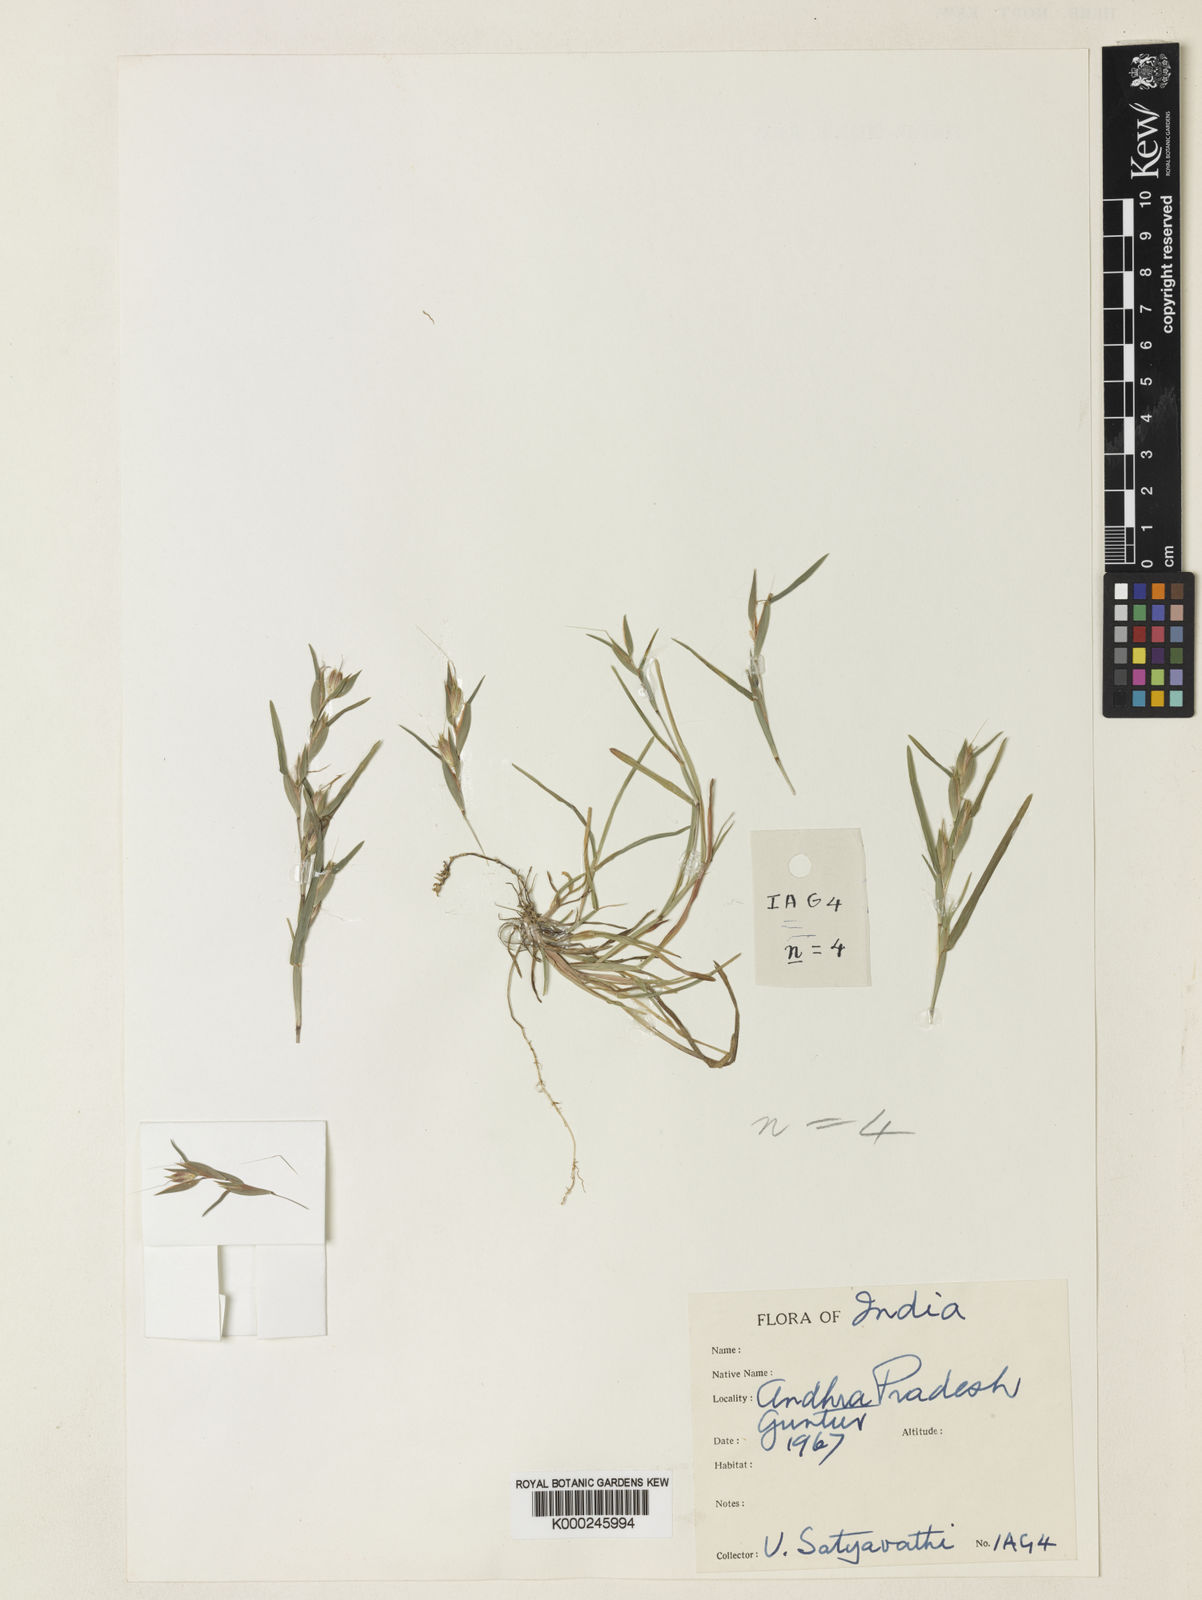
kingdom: Plantae
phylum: Tracheophyta
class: Liliopsida
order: Poales
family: Poaceae
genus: Iseilema
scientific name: Iseilema
